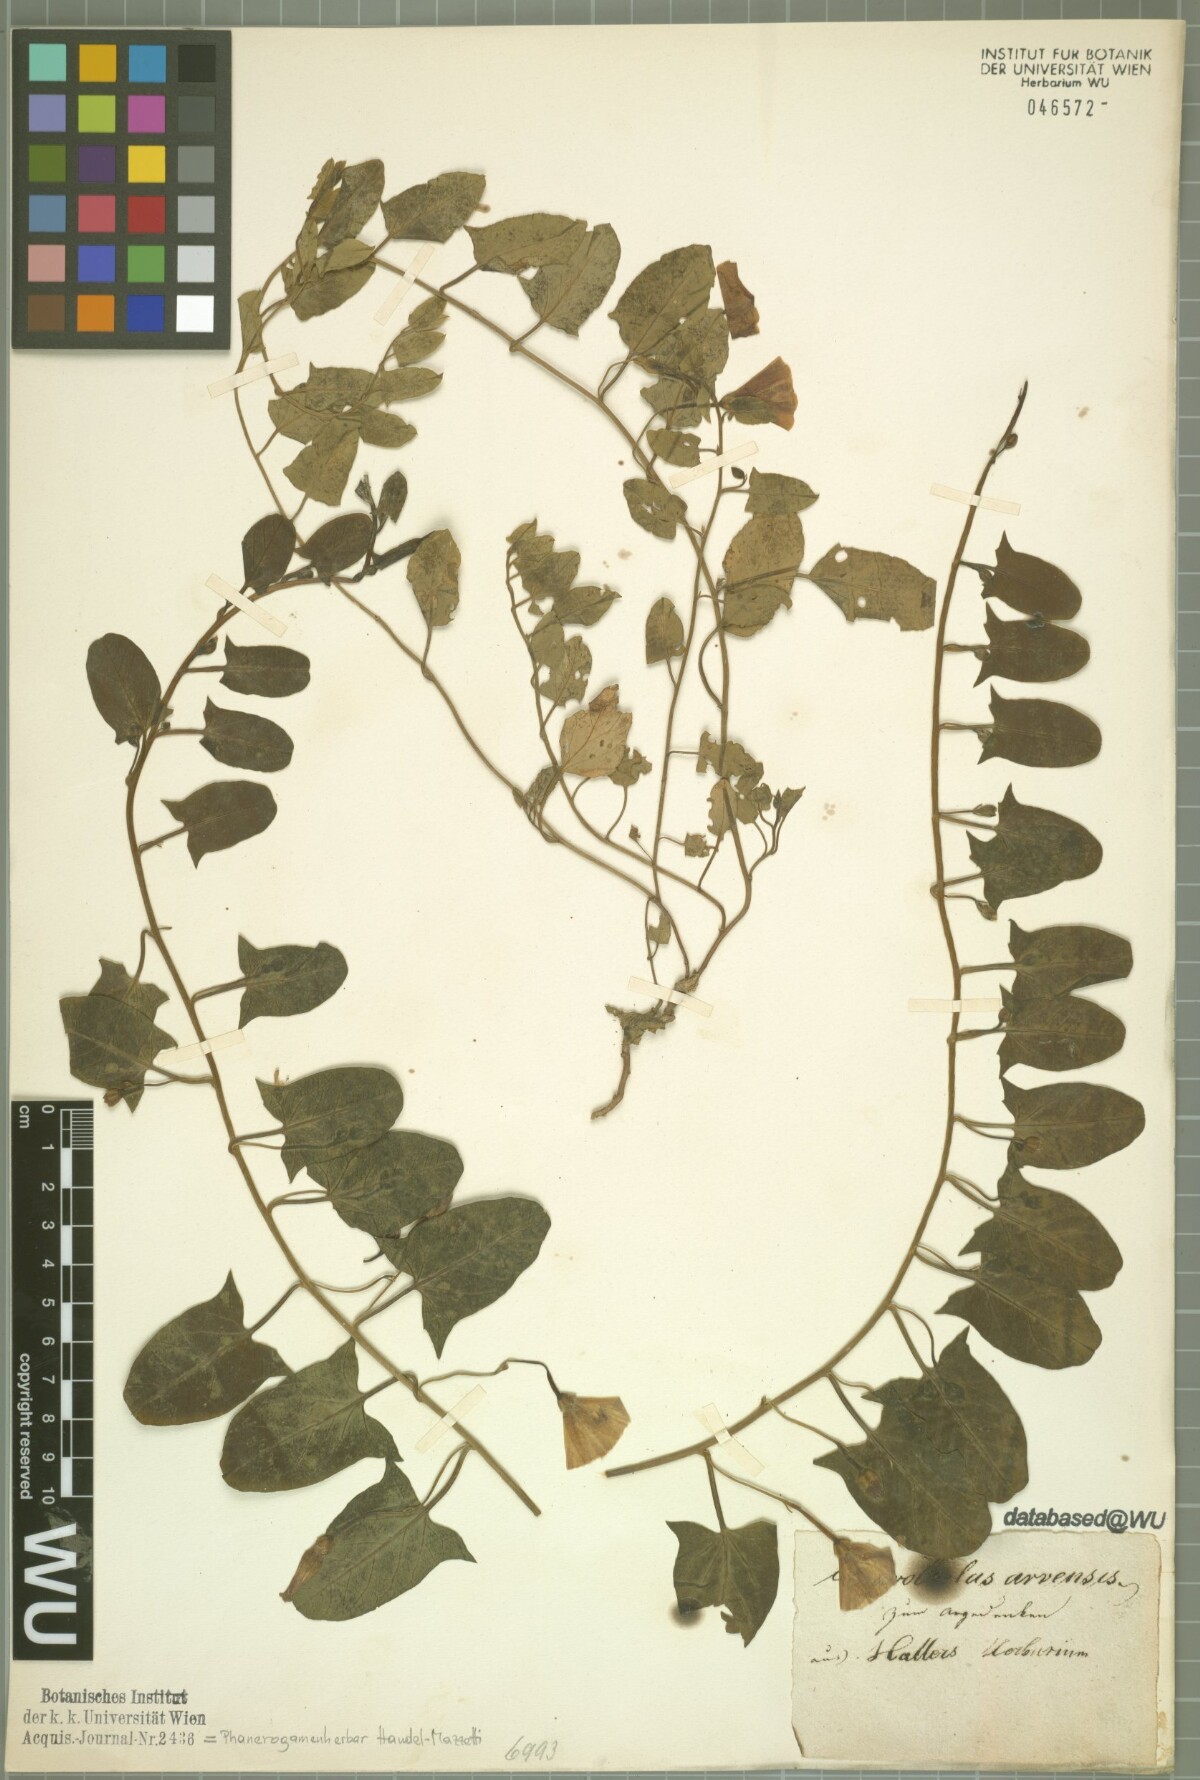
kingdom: Plantae
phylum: Tracheophyta
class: Magnoliopsida
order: Solanales
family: Convolvulaceae
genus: Convolvulus
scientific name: Convolvulus arvensis
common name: Field bindweed
